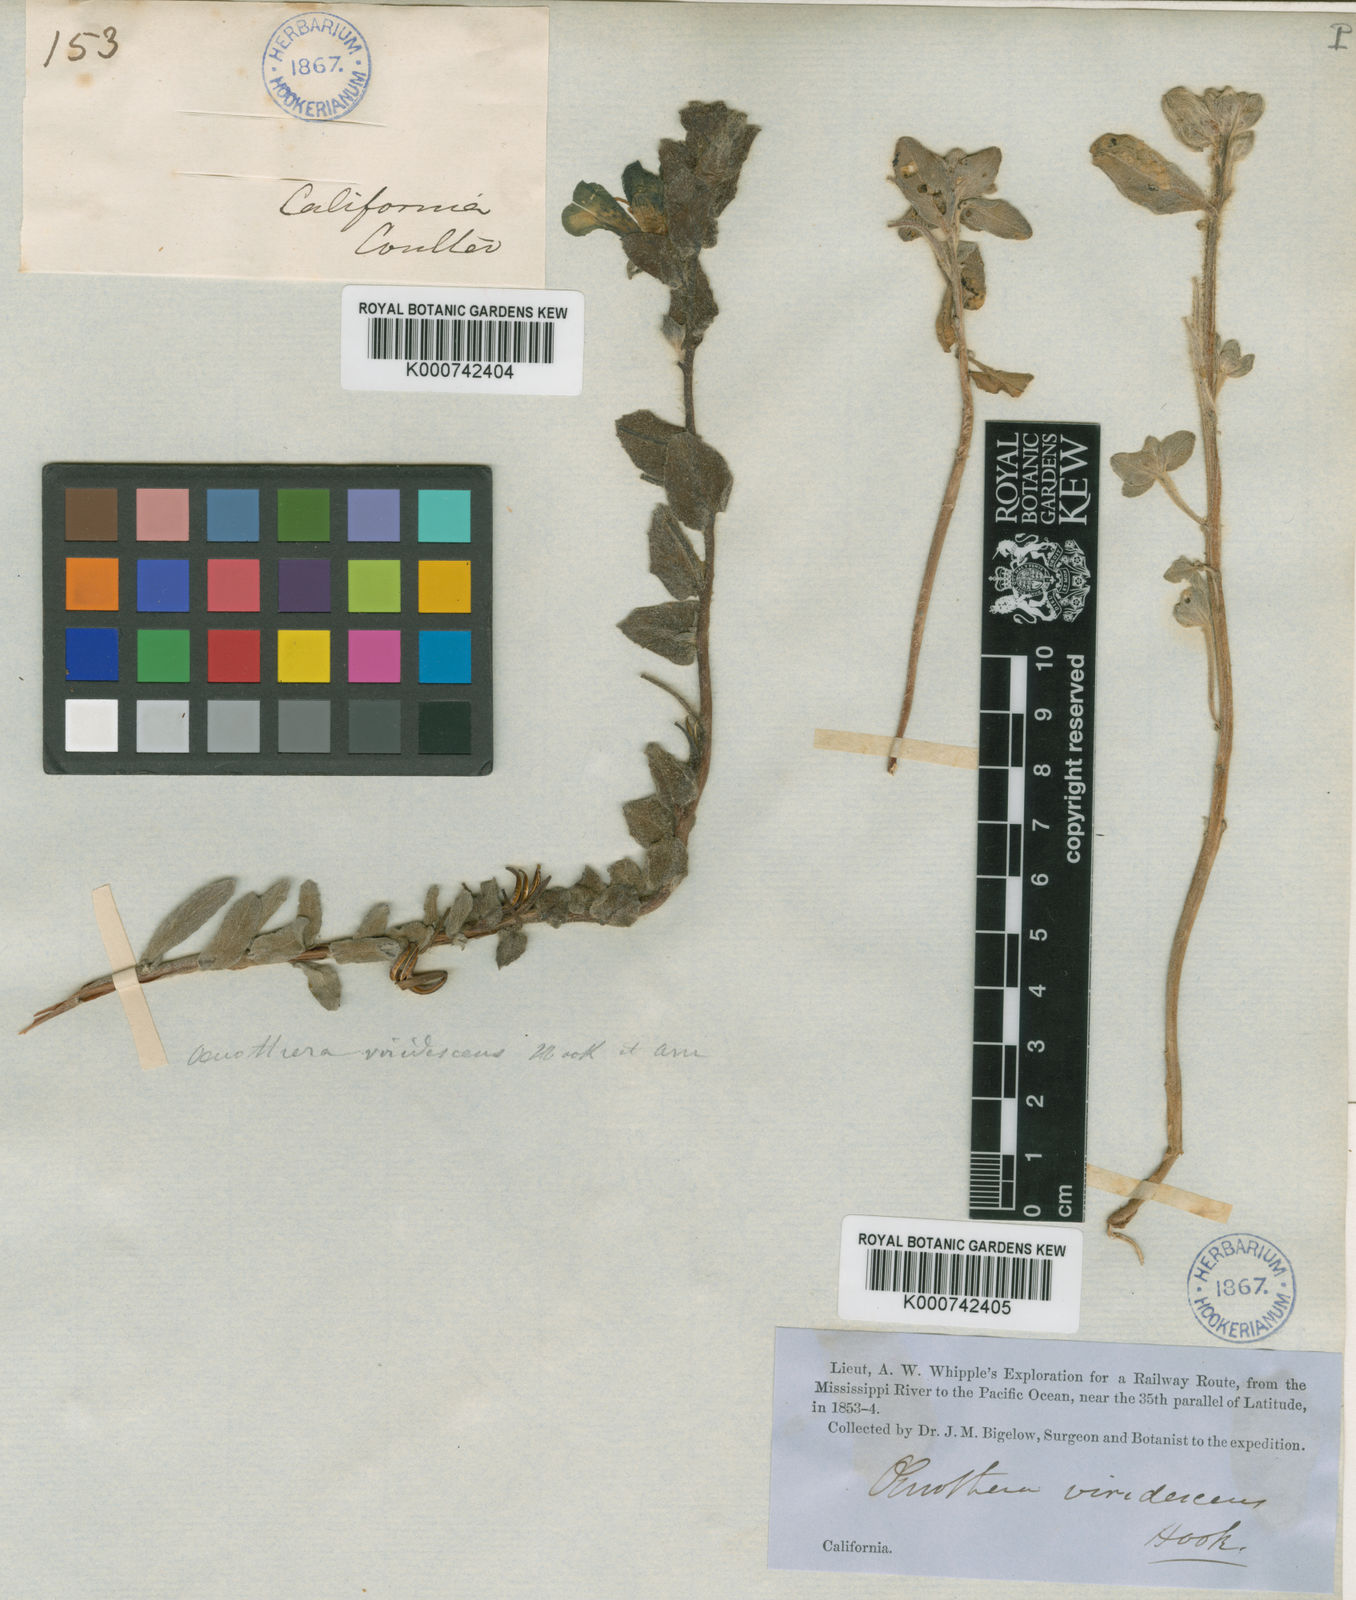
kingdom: Plantae
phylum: Tracheophyta
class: Magnoliopsida
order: Myrtales
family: Onagraceae
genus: Camissoniopsis
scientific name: Camissoniopsis cheiranthifolia
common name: Beach suncup
